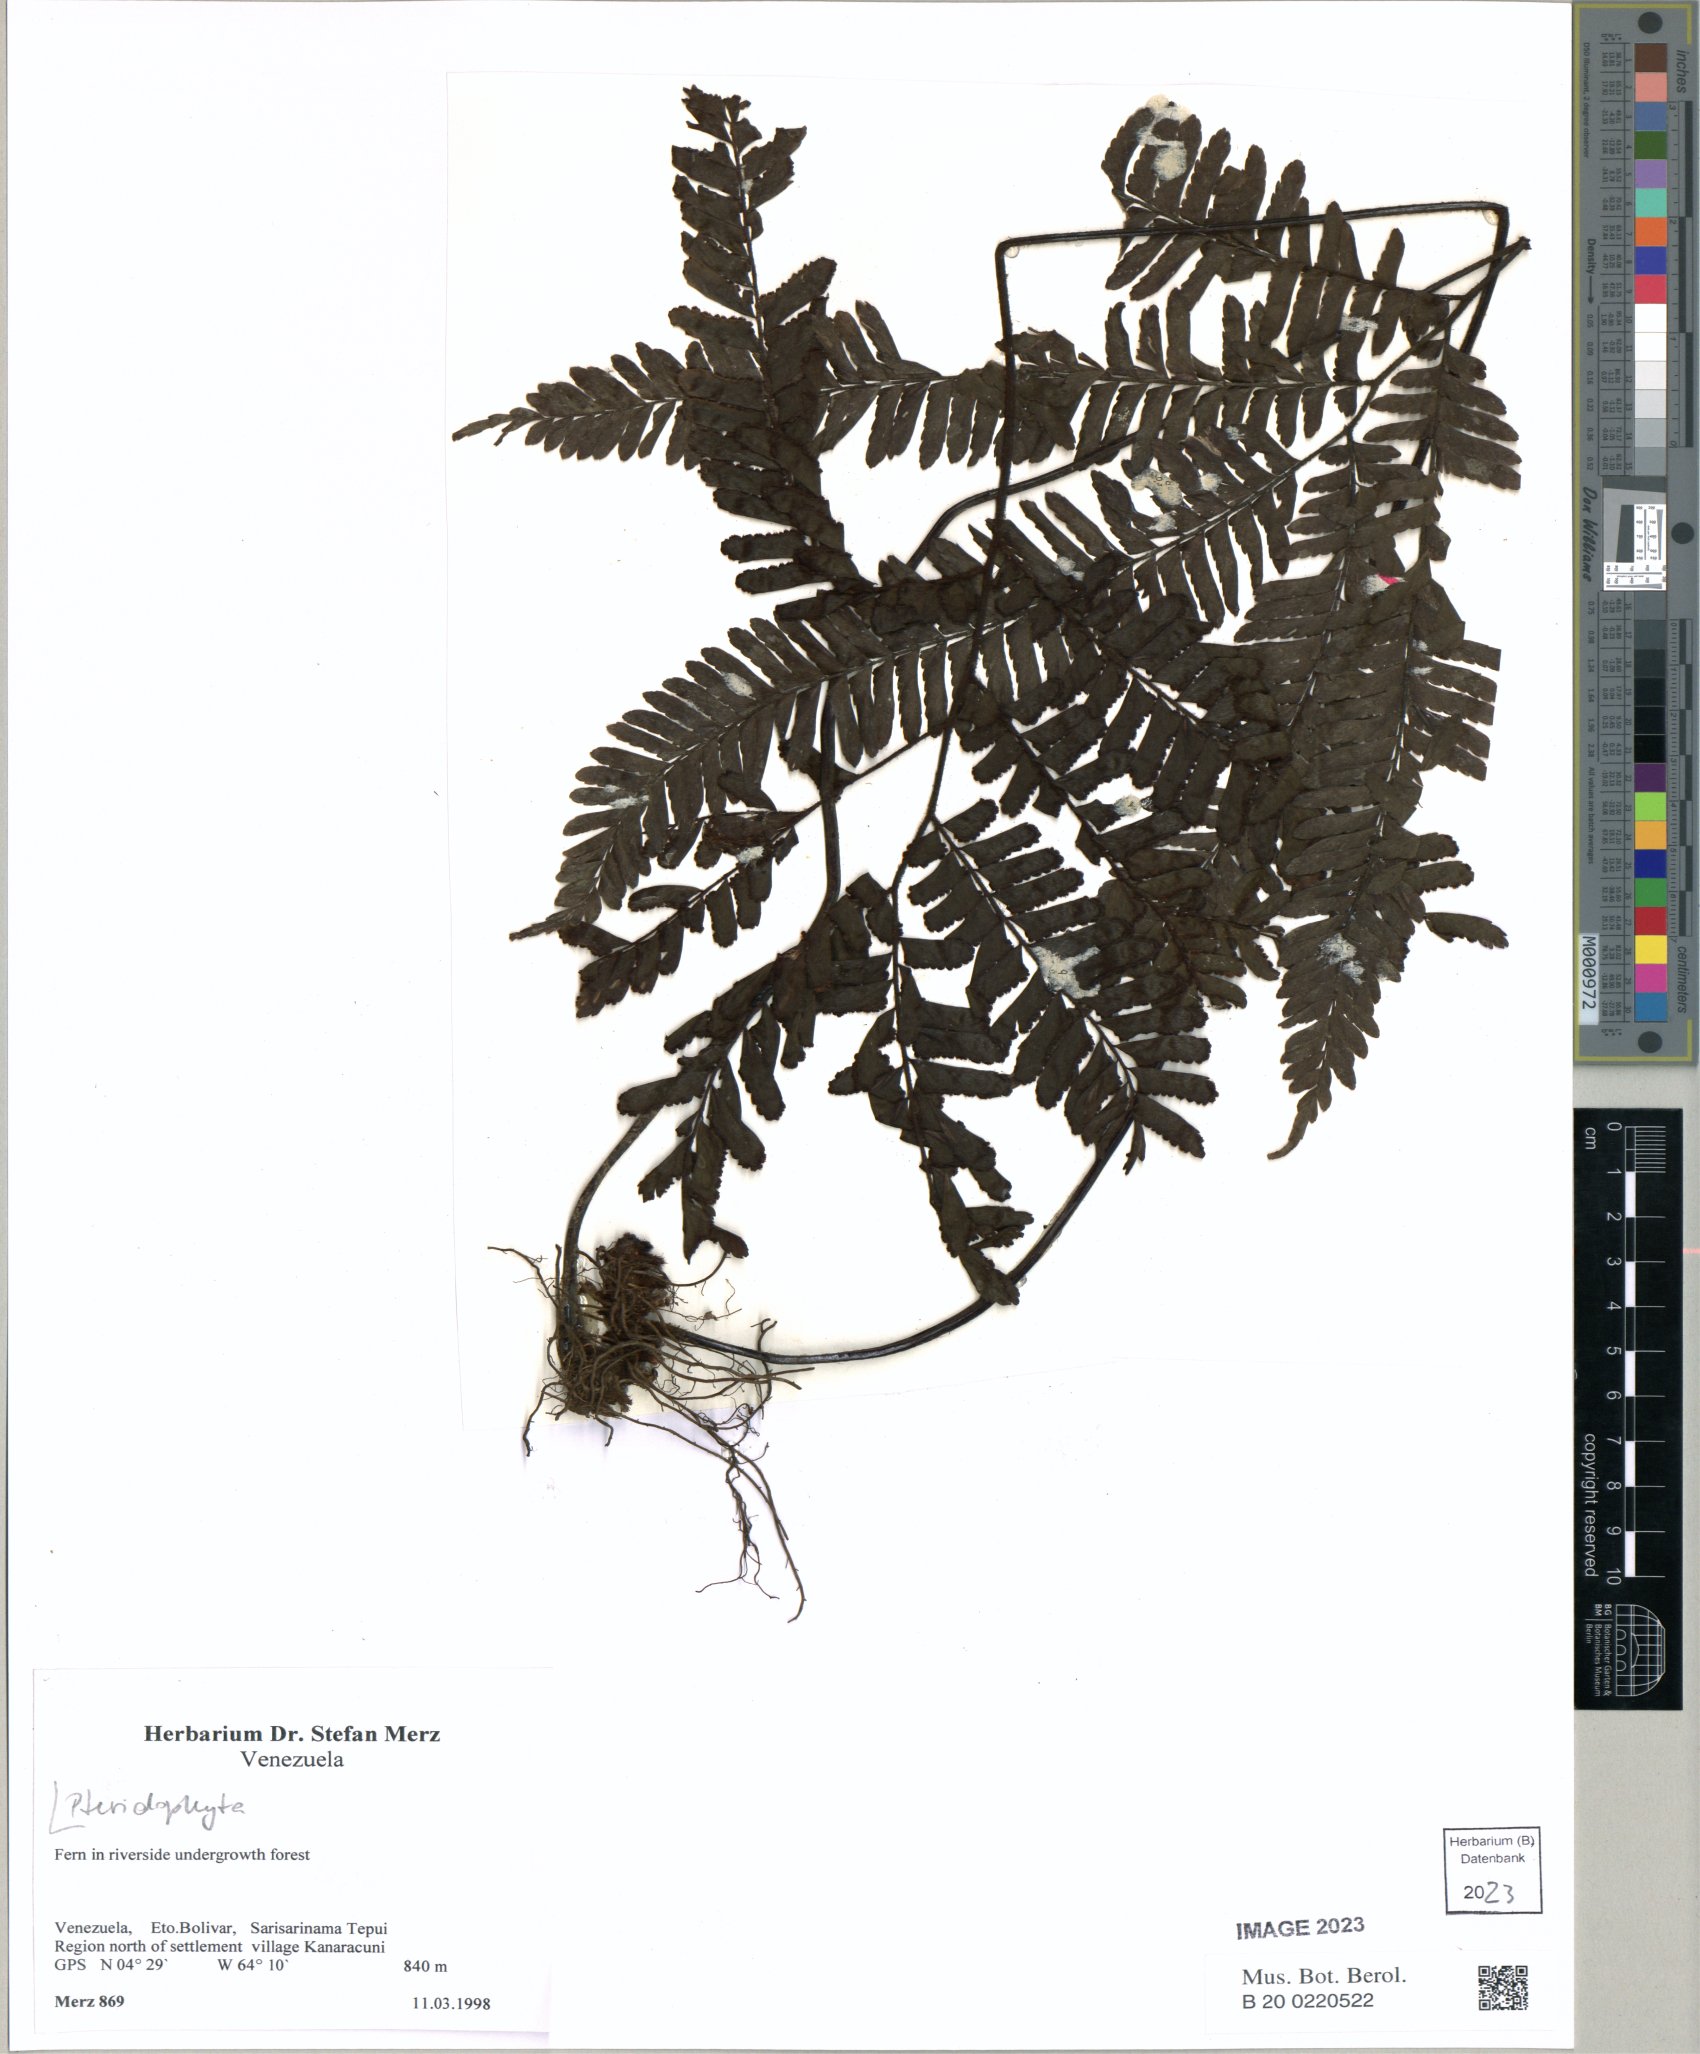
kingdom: Plantae
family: Pteridophyta
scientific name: Pteridophyta
